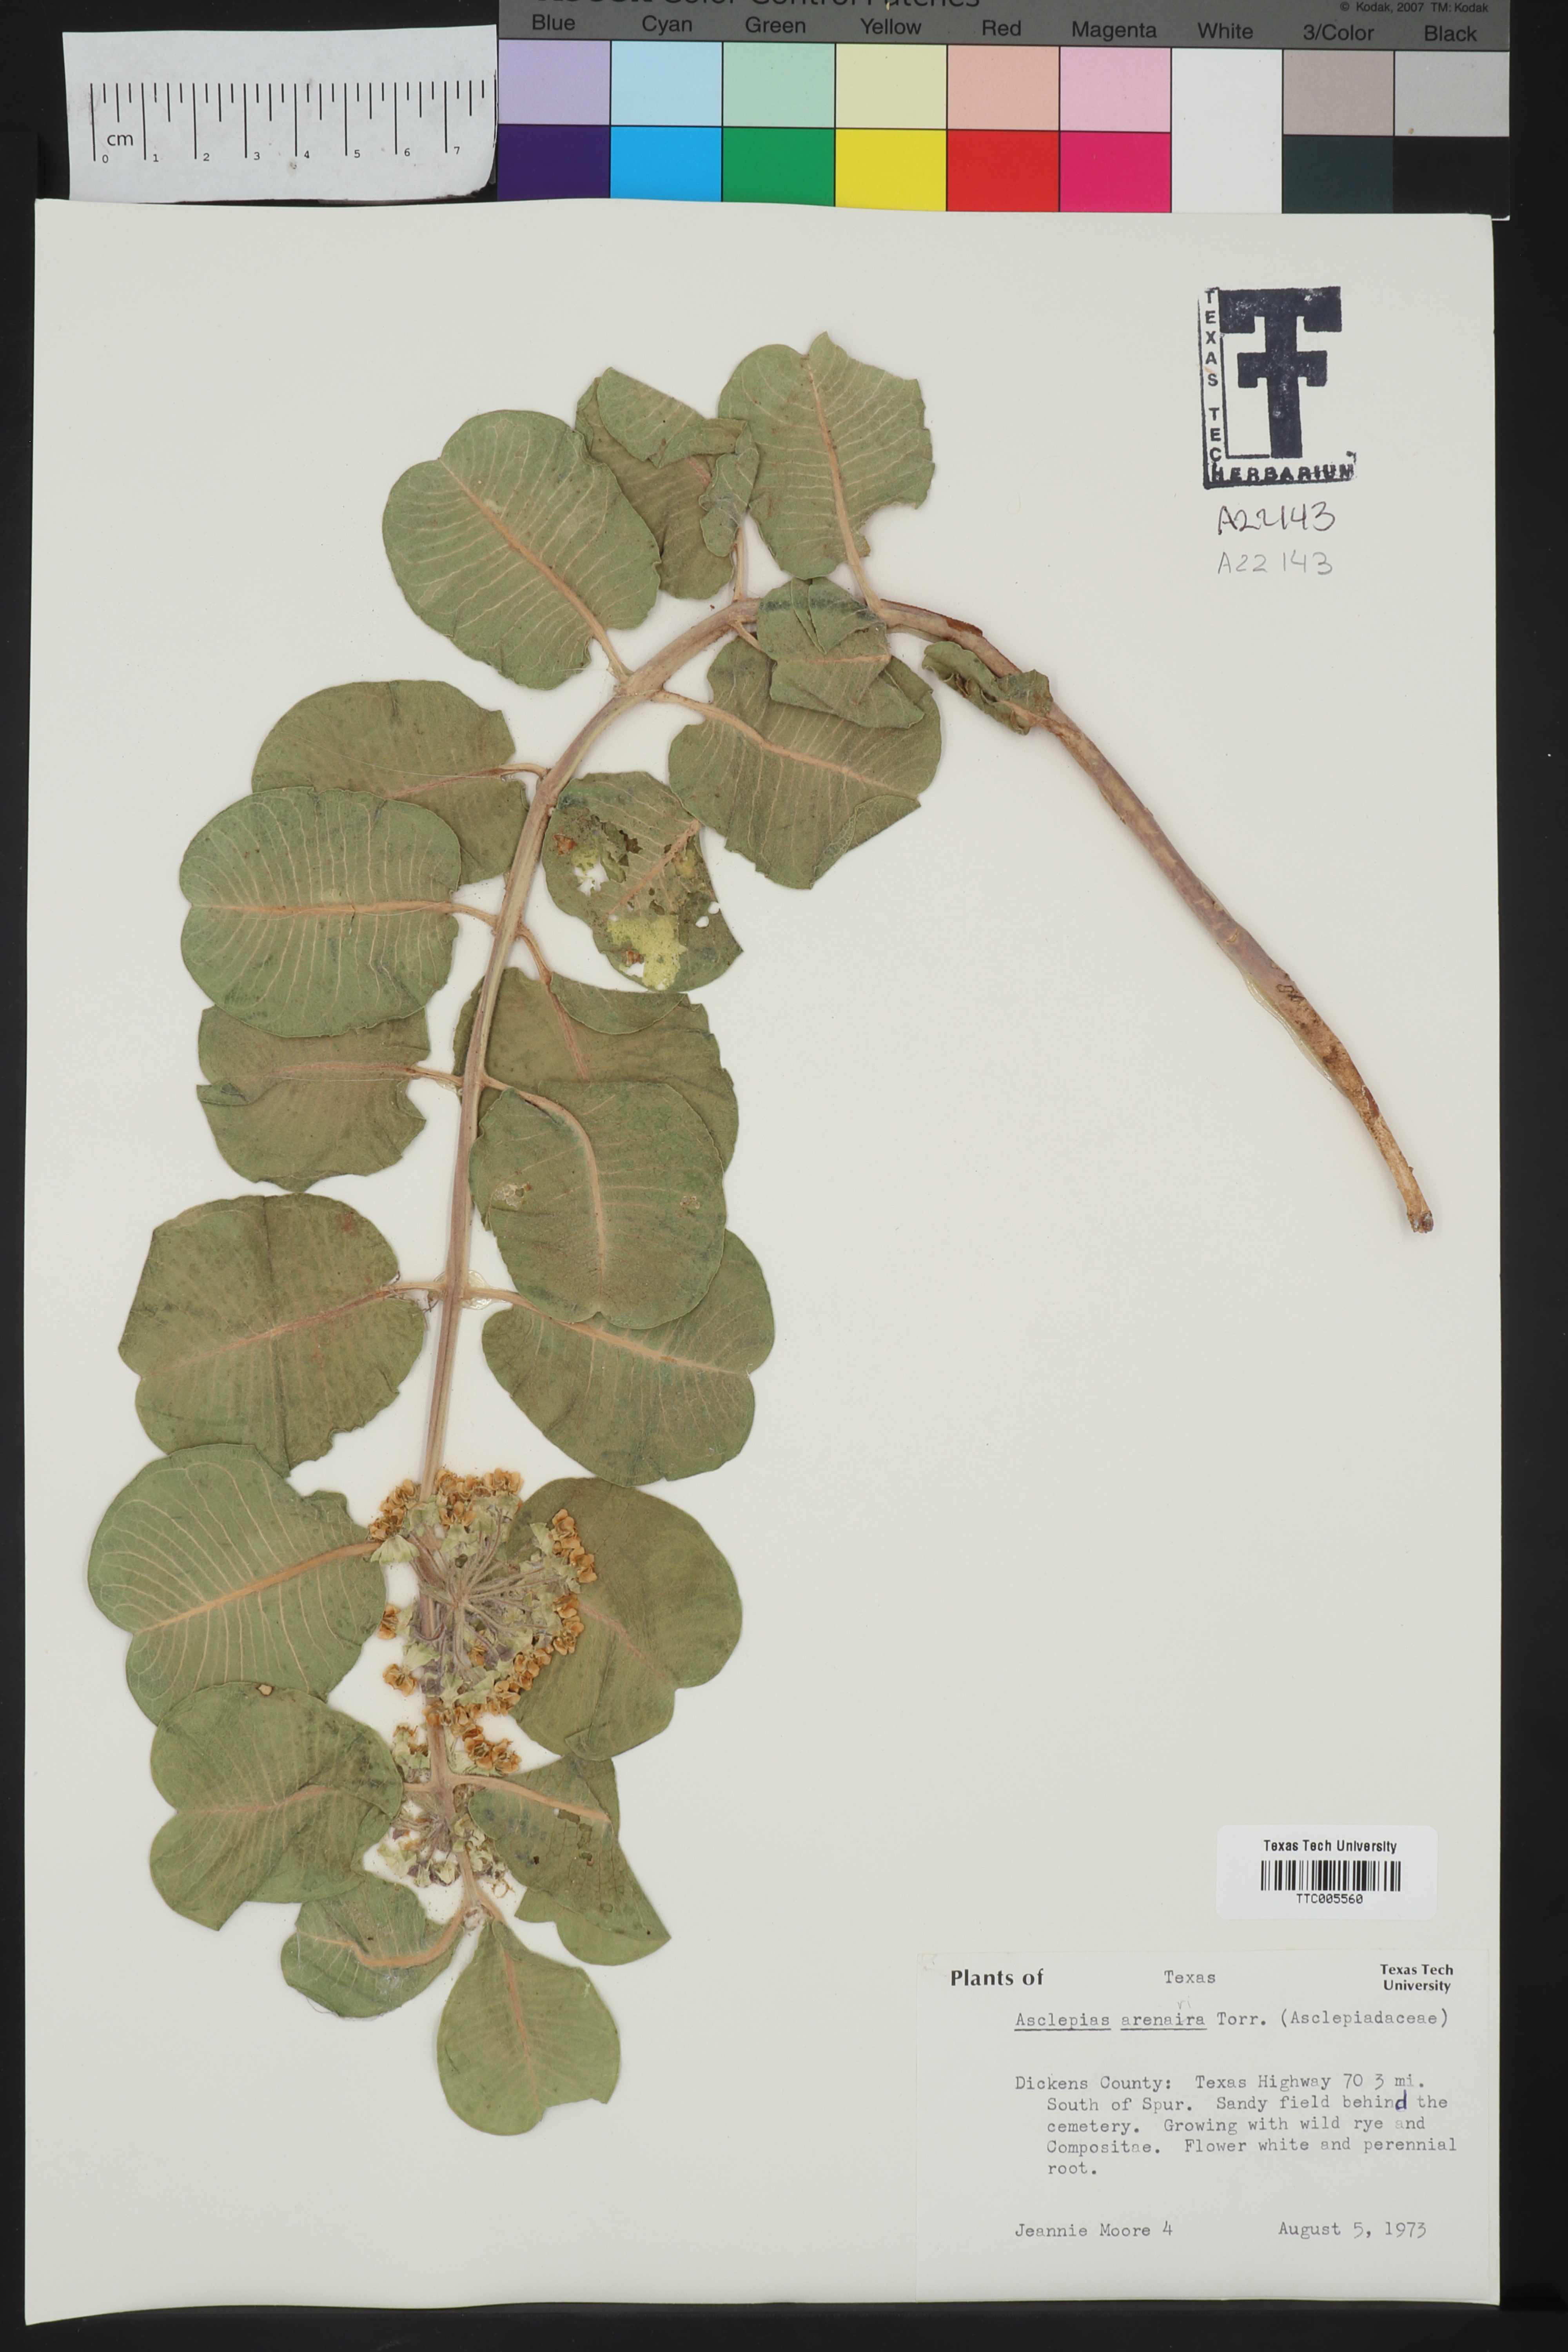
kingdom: Plantae
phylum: Tracheophyta
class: Magnoliopsida
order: Gentianales
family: Apocynaceae
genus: Asclepias
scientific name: Asclepias arenaria
